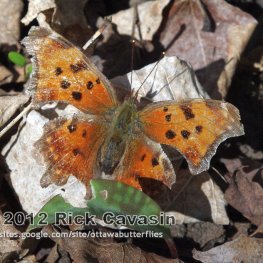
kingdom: Animalia
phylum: Arthropoda
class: Insecta
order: Lepidoptera
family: Nymphalidae
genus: Polygonia
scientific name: Polygonia comma
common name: Eastern Comma
